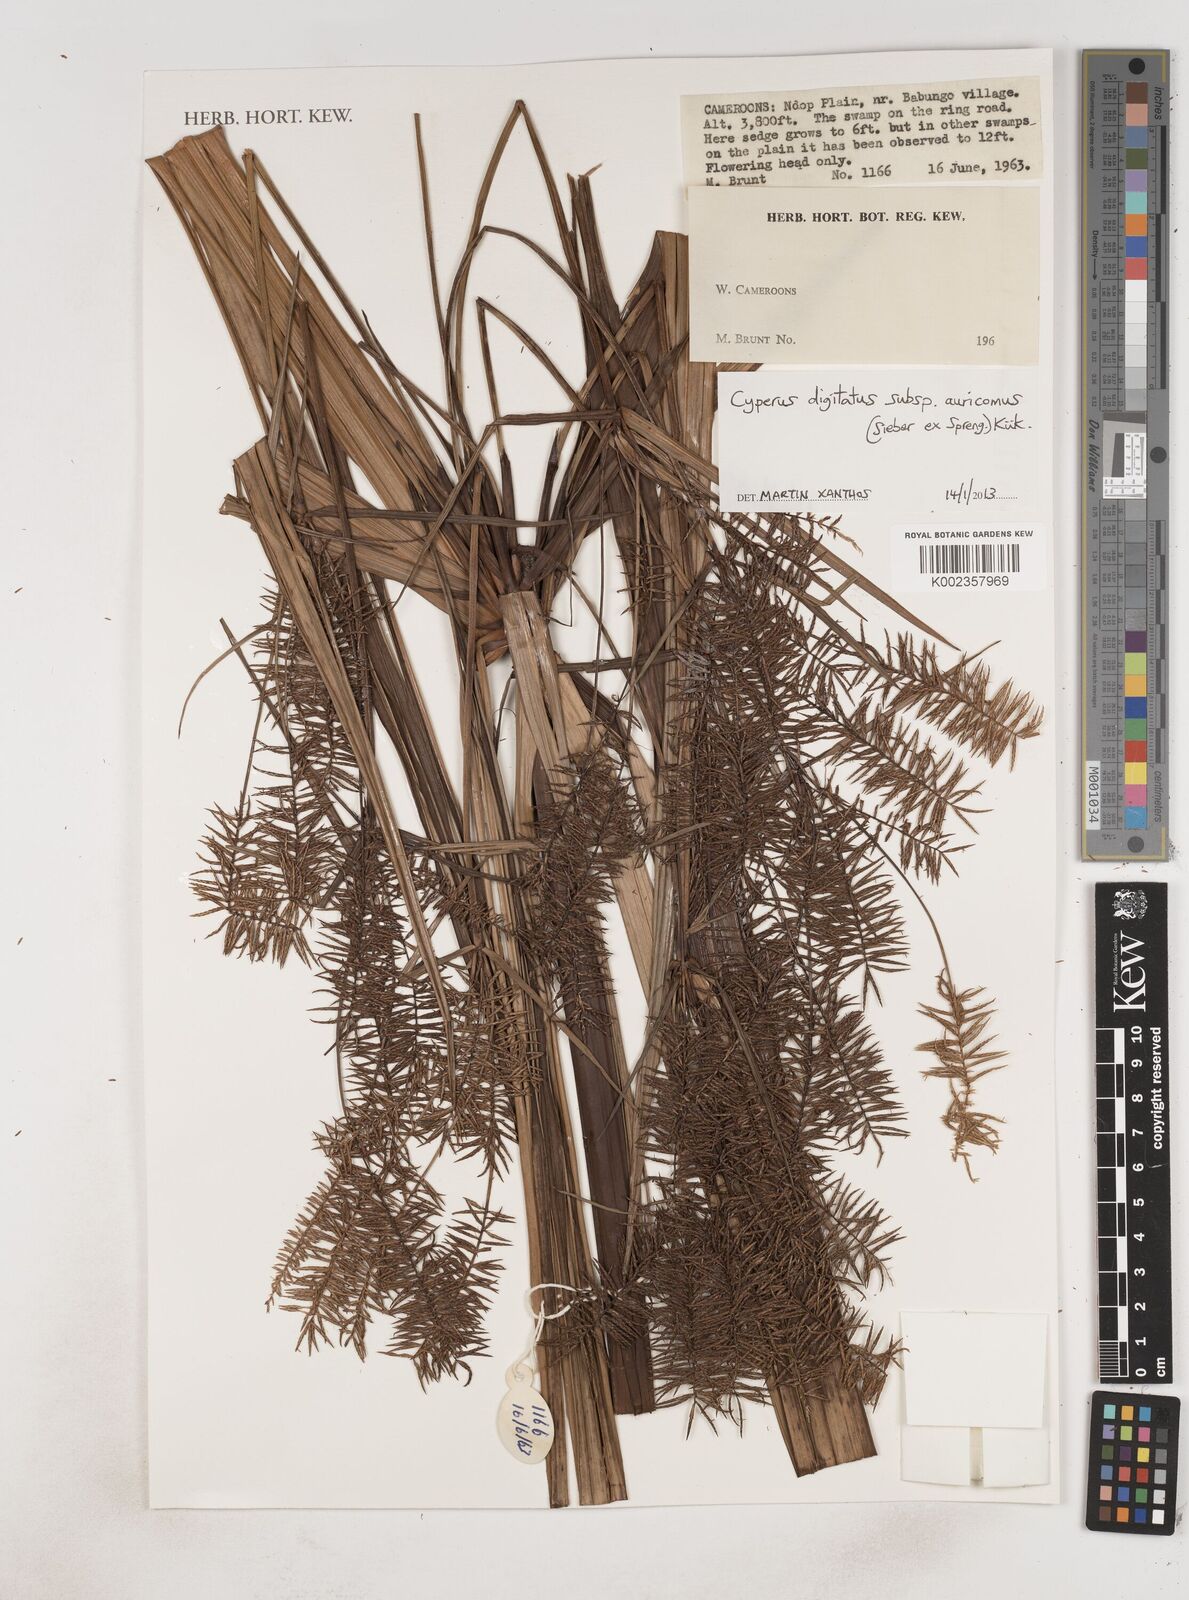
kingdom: Plantae
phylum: Tracheophyta
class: Liliopsida
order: Poales
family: Cyperaceae
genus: Cyperus
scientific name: Cyperus digitatus
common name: Finger flatsedge
